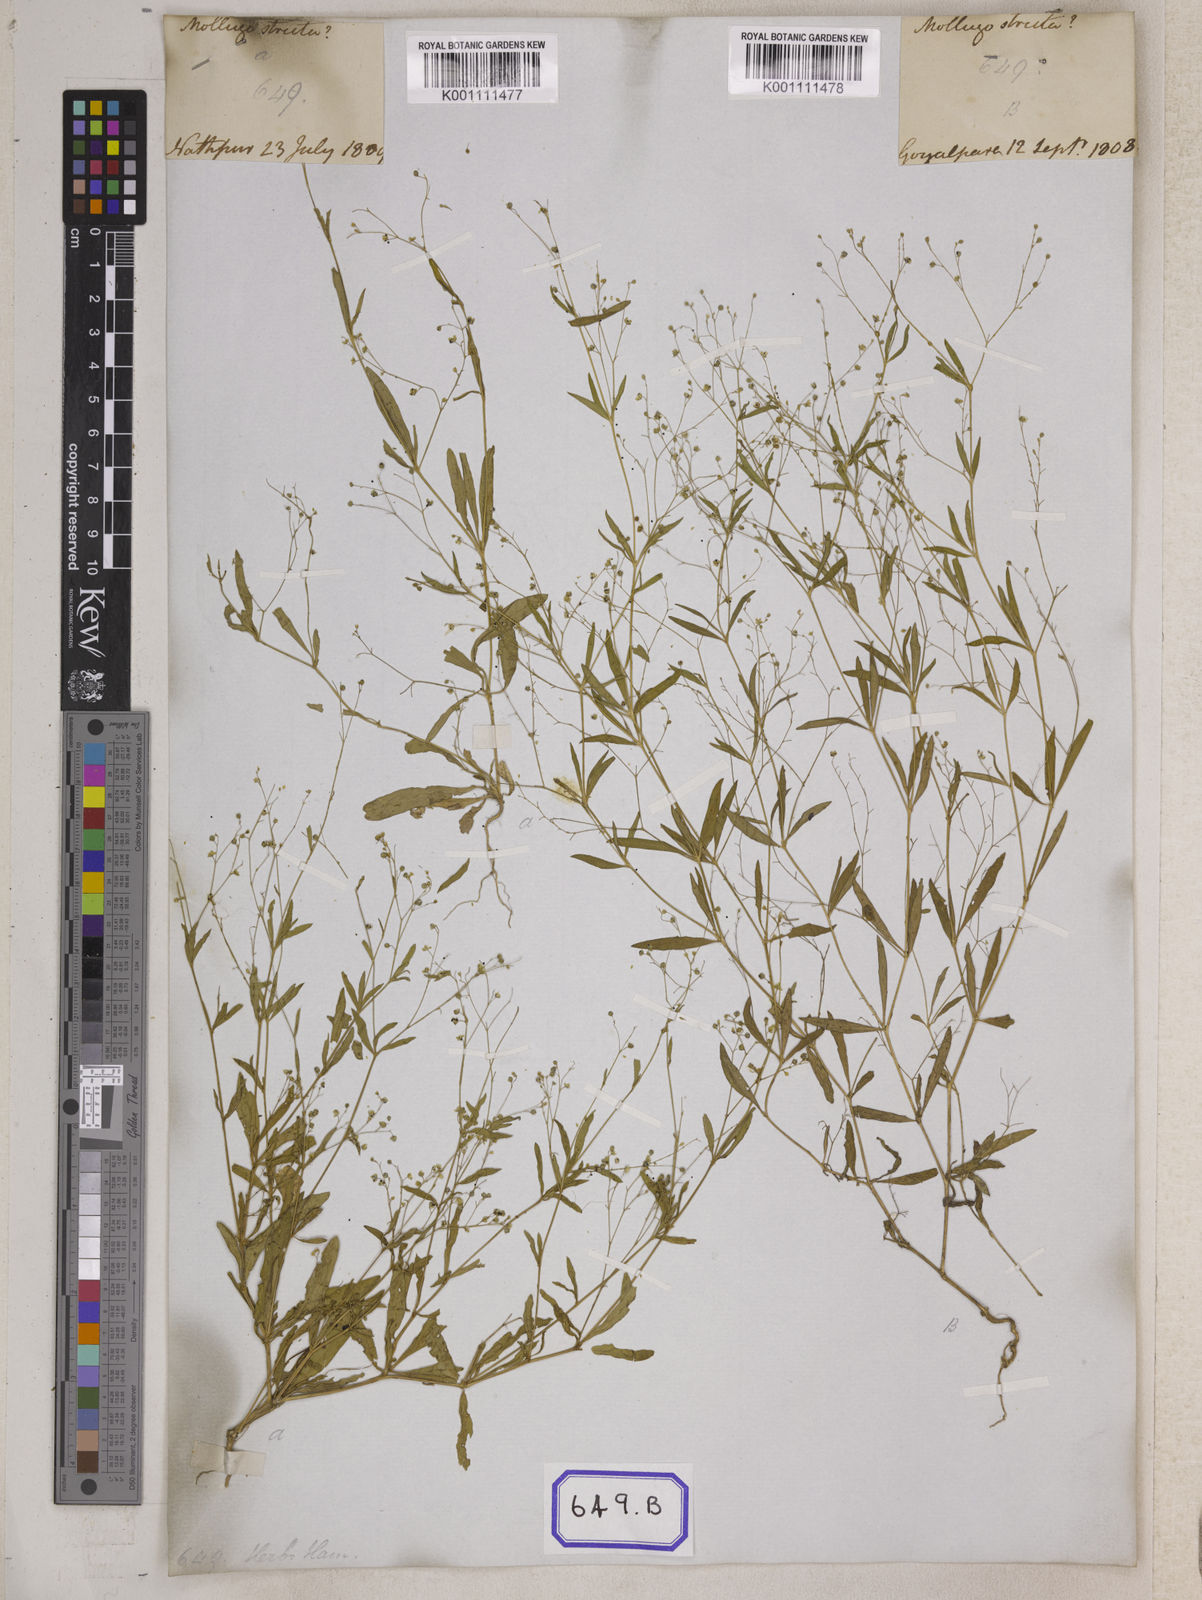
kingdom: Plantae
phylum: Tracheophyta
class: Magnoliopsida
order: Caryophyllales
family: Molluginaceae
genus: Trigastrotheca
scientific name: Trigastrotheca stricta
